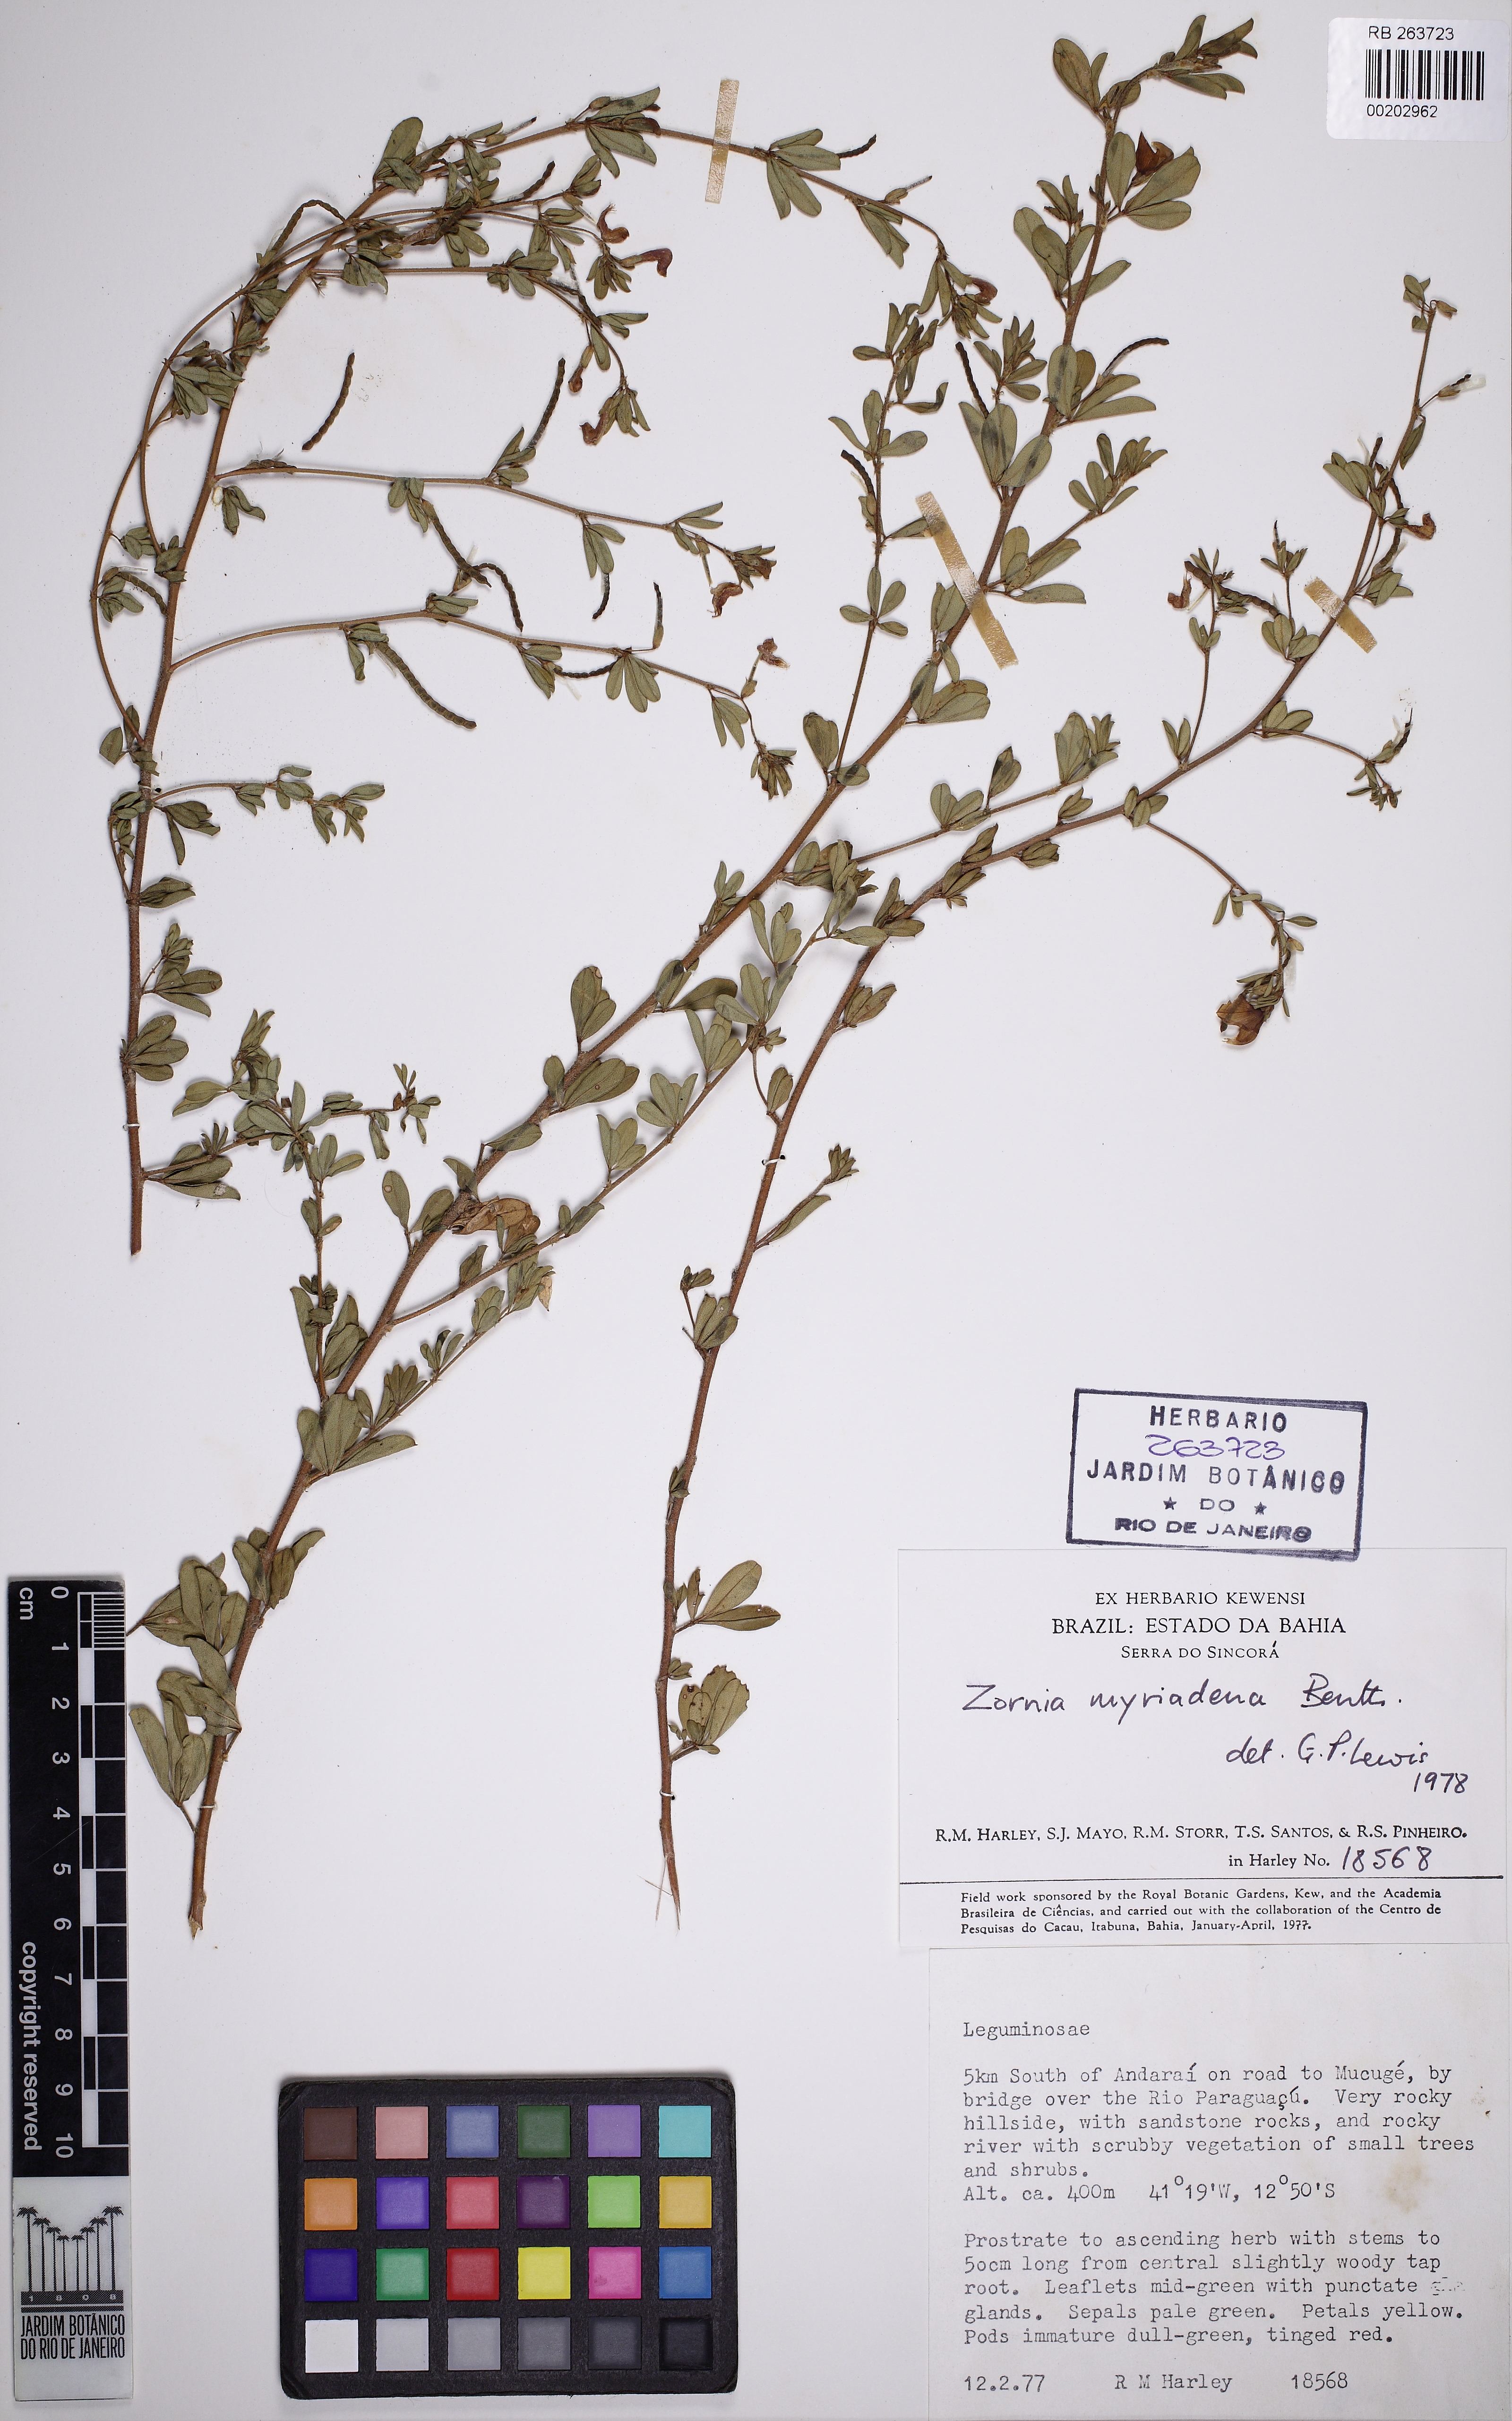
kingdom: Plantae
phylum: Tracheophyta
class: Magnoliopsida
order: Fabales
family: Fabaceae
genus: Zornia
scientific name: Zornia myriadena
